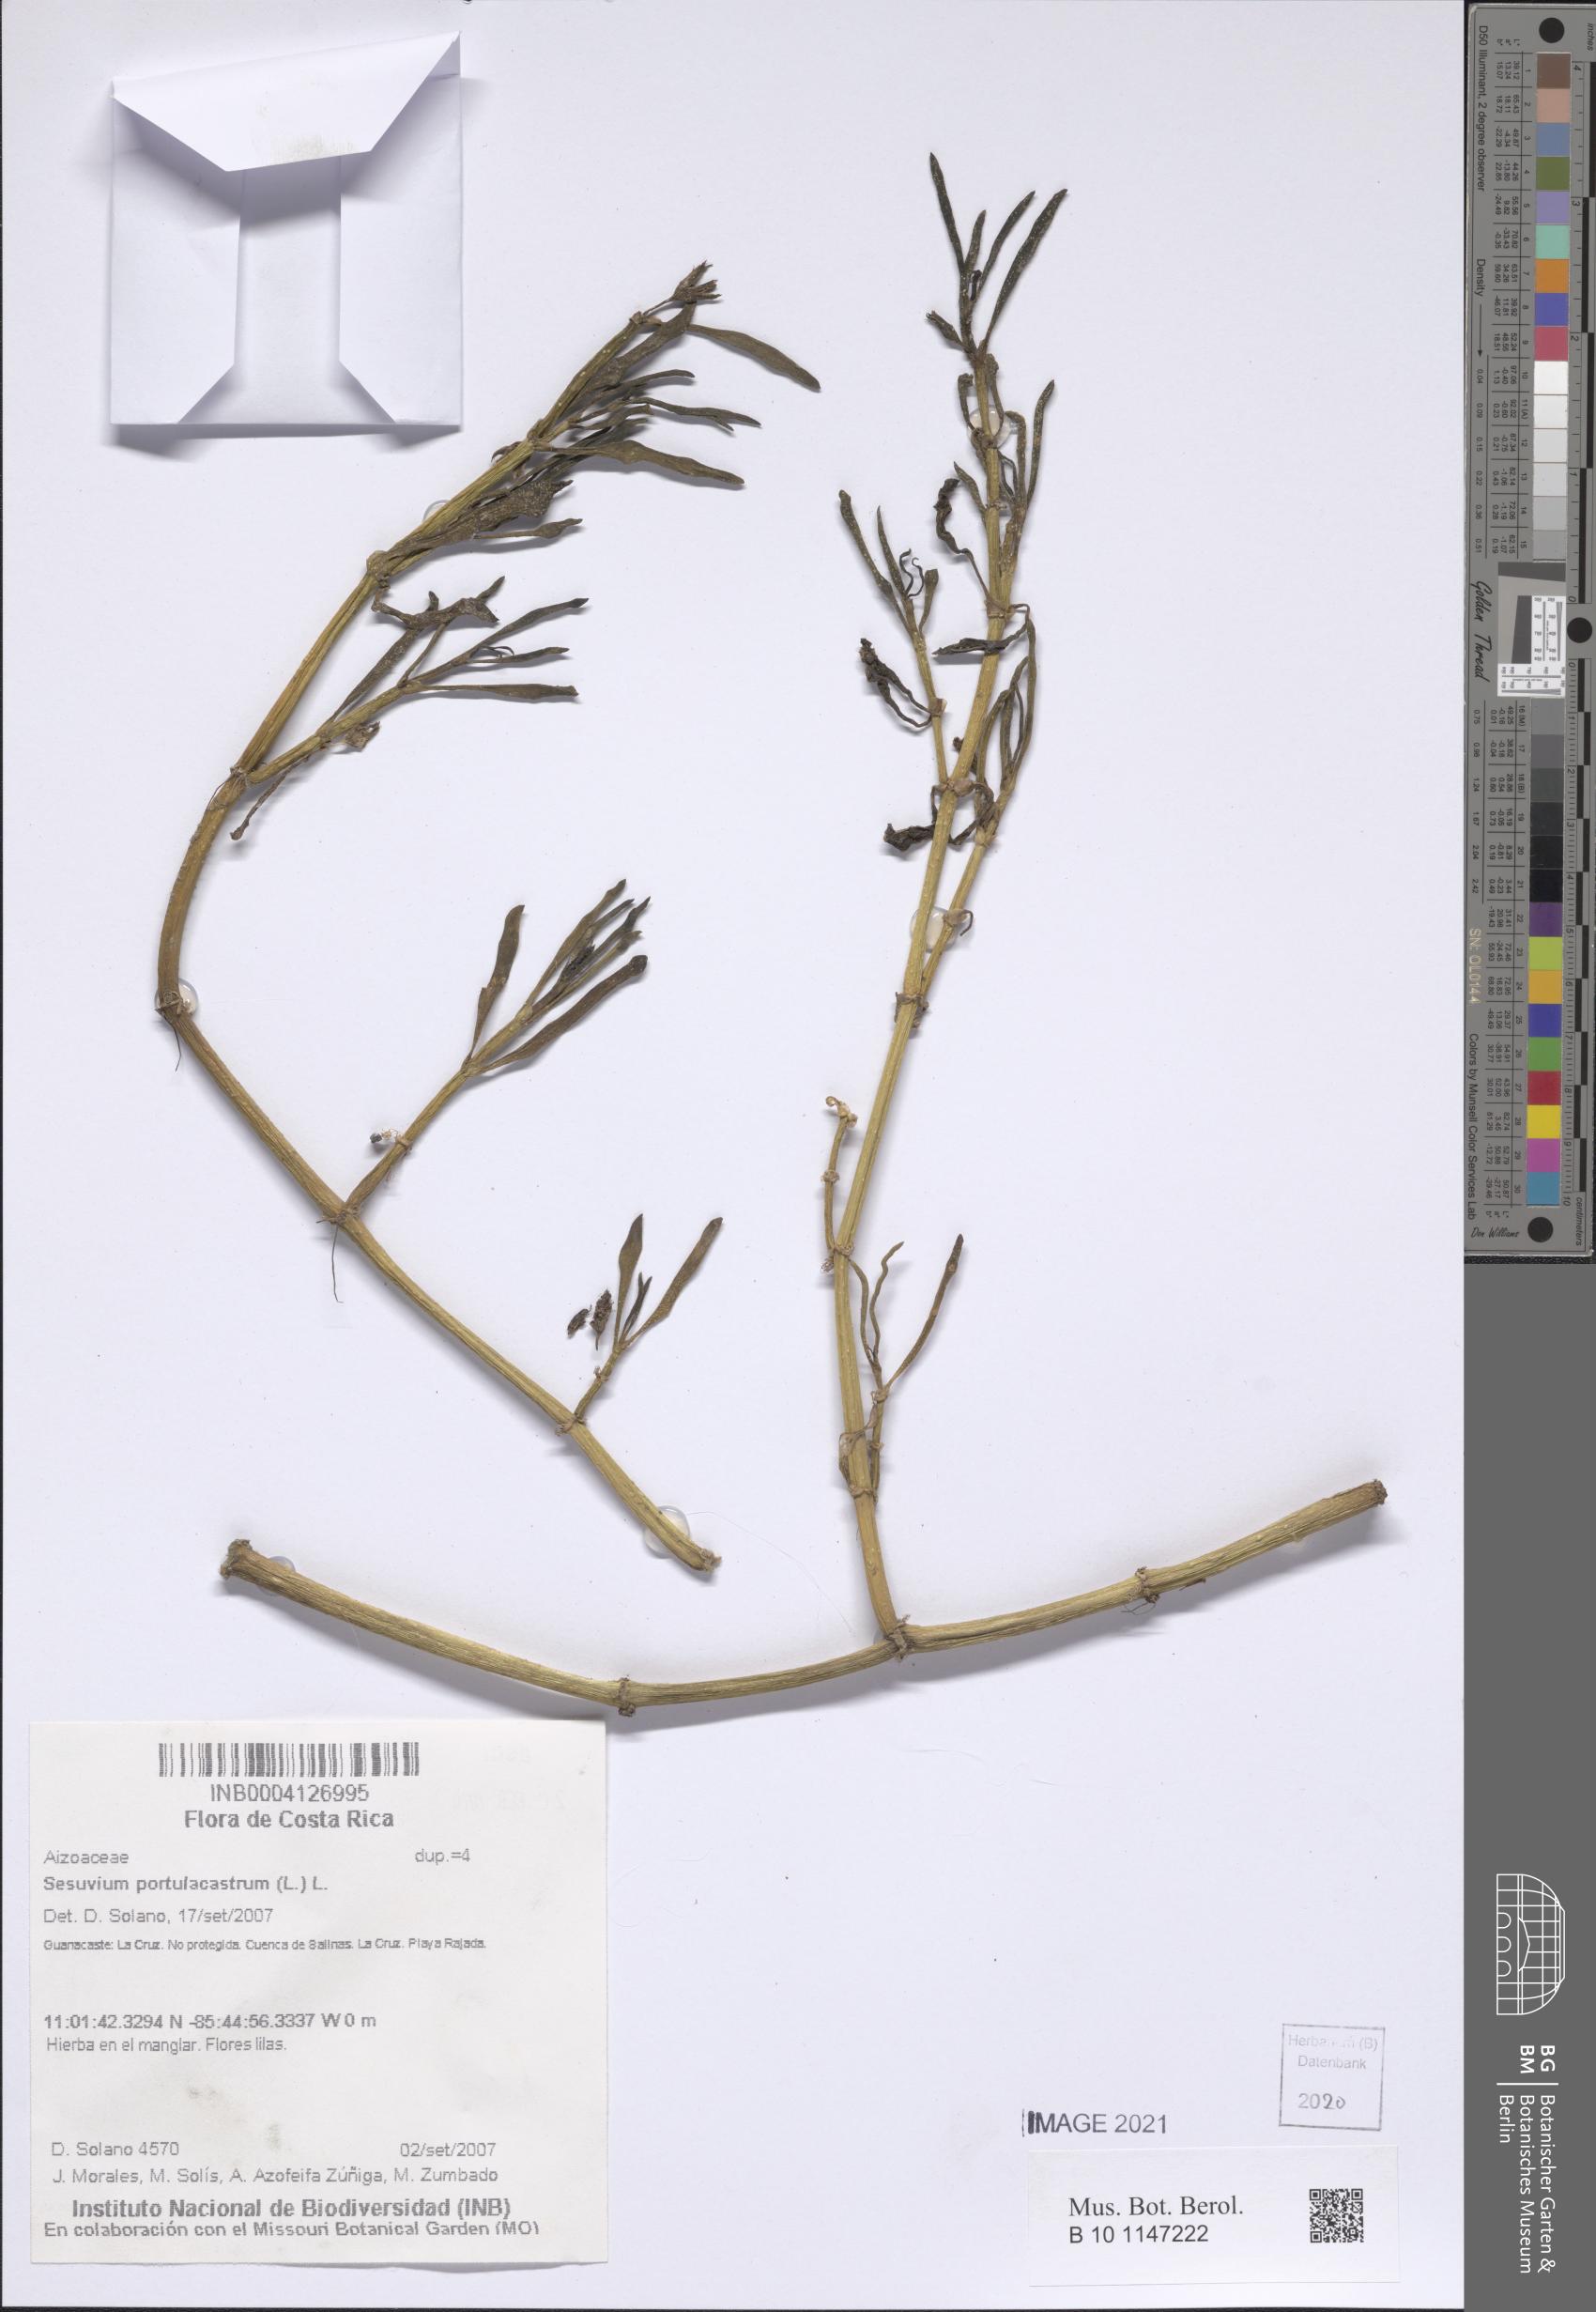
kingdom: Plantae
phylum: Tracheophyta
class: Magnoliopsida
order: Caryophyllales
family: Aizoaceae
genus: Sesuvium
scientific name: Sesuvium portulacastrum
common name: Sea-purslane
